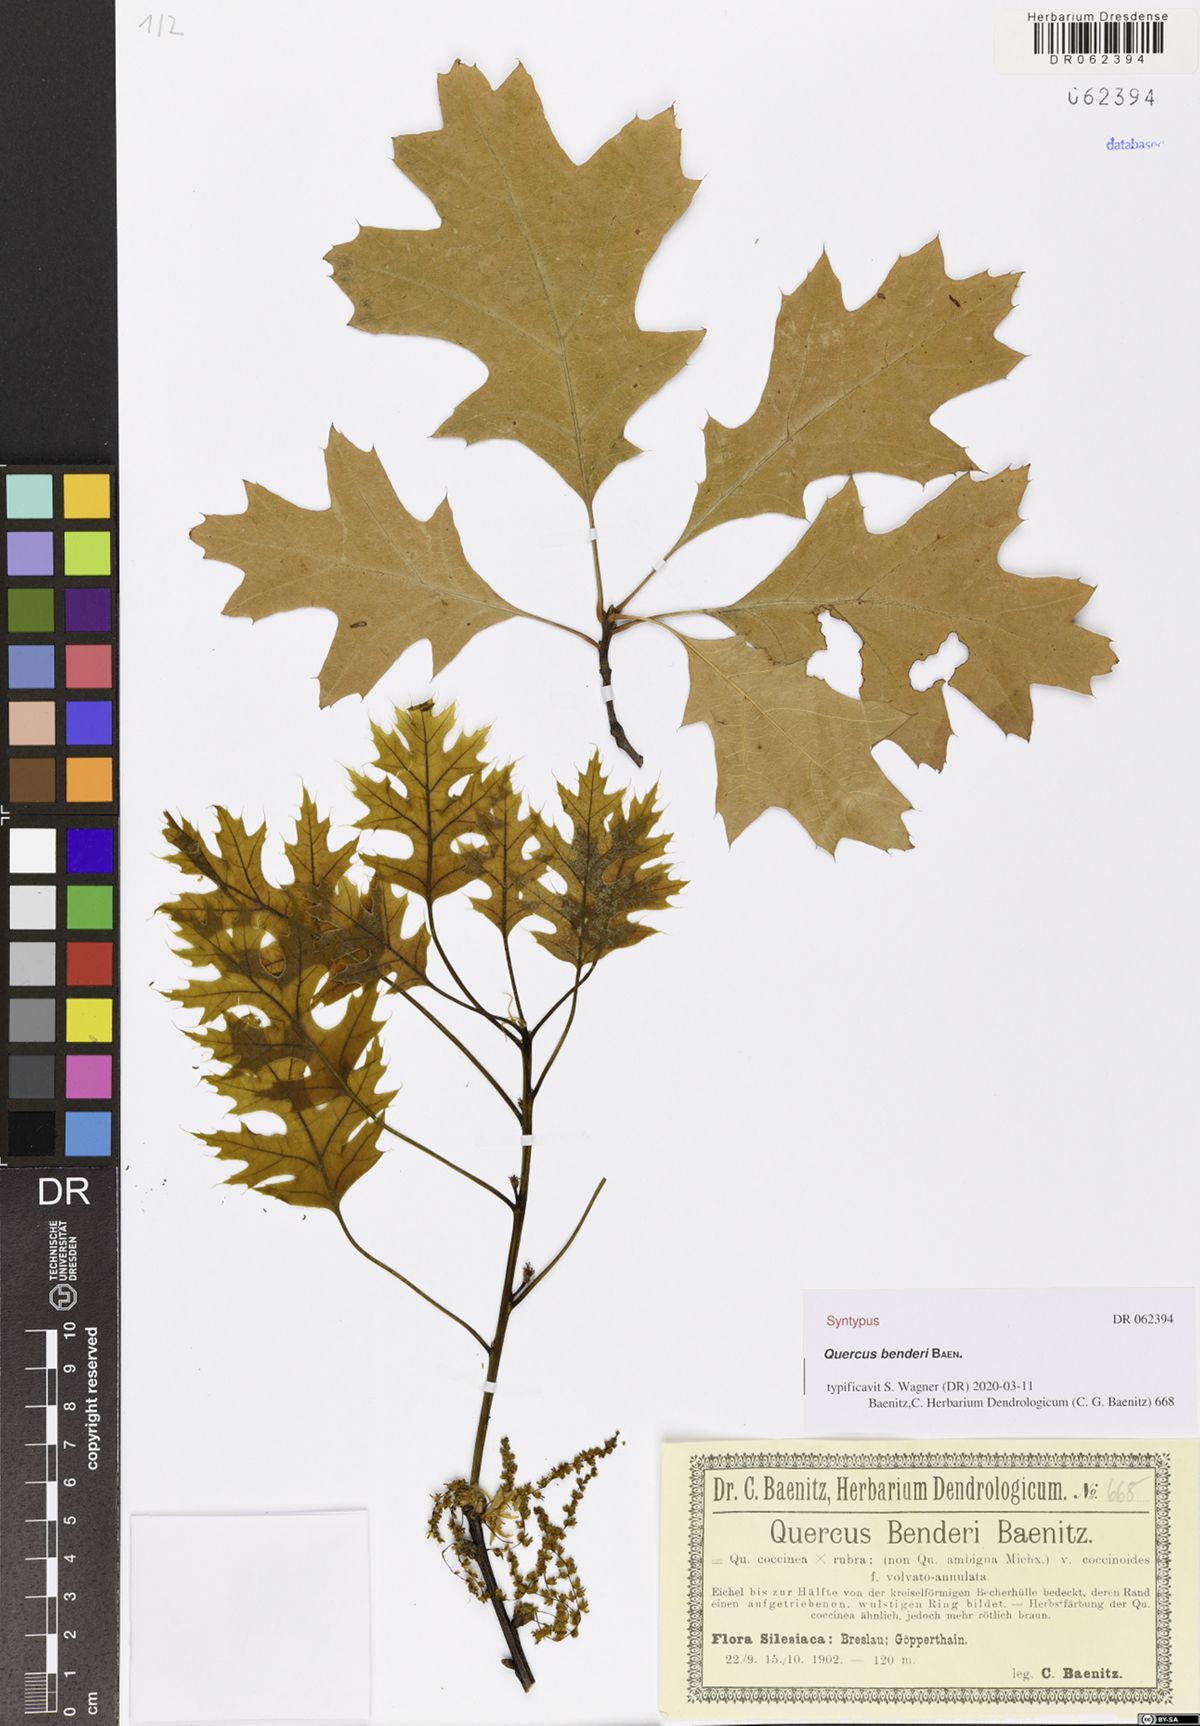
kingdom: Plantae
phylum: Tracheophyta
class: Magnoliopsida
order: Fagales
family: Fagaceae
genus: Quercus
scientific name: Quercus benderi
